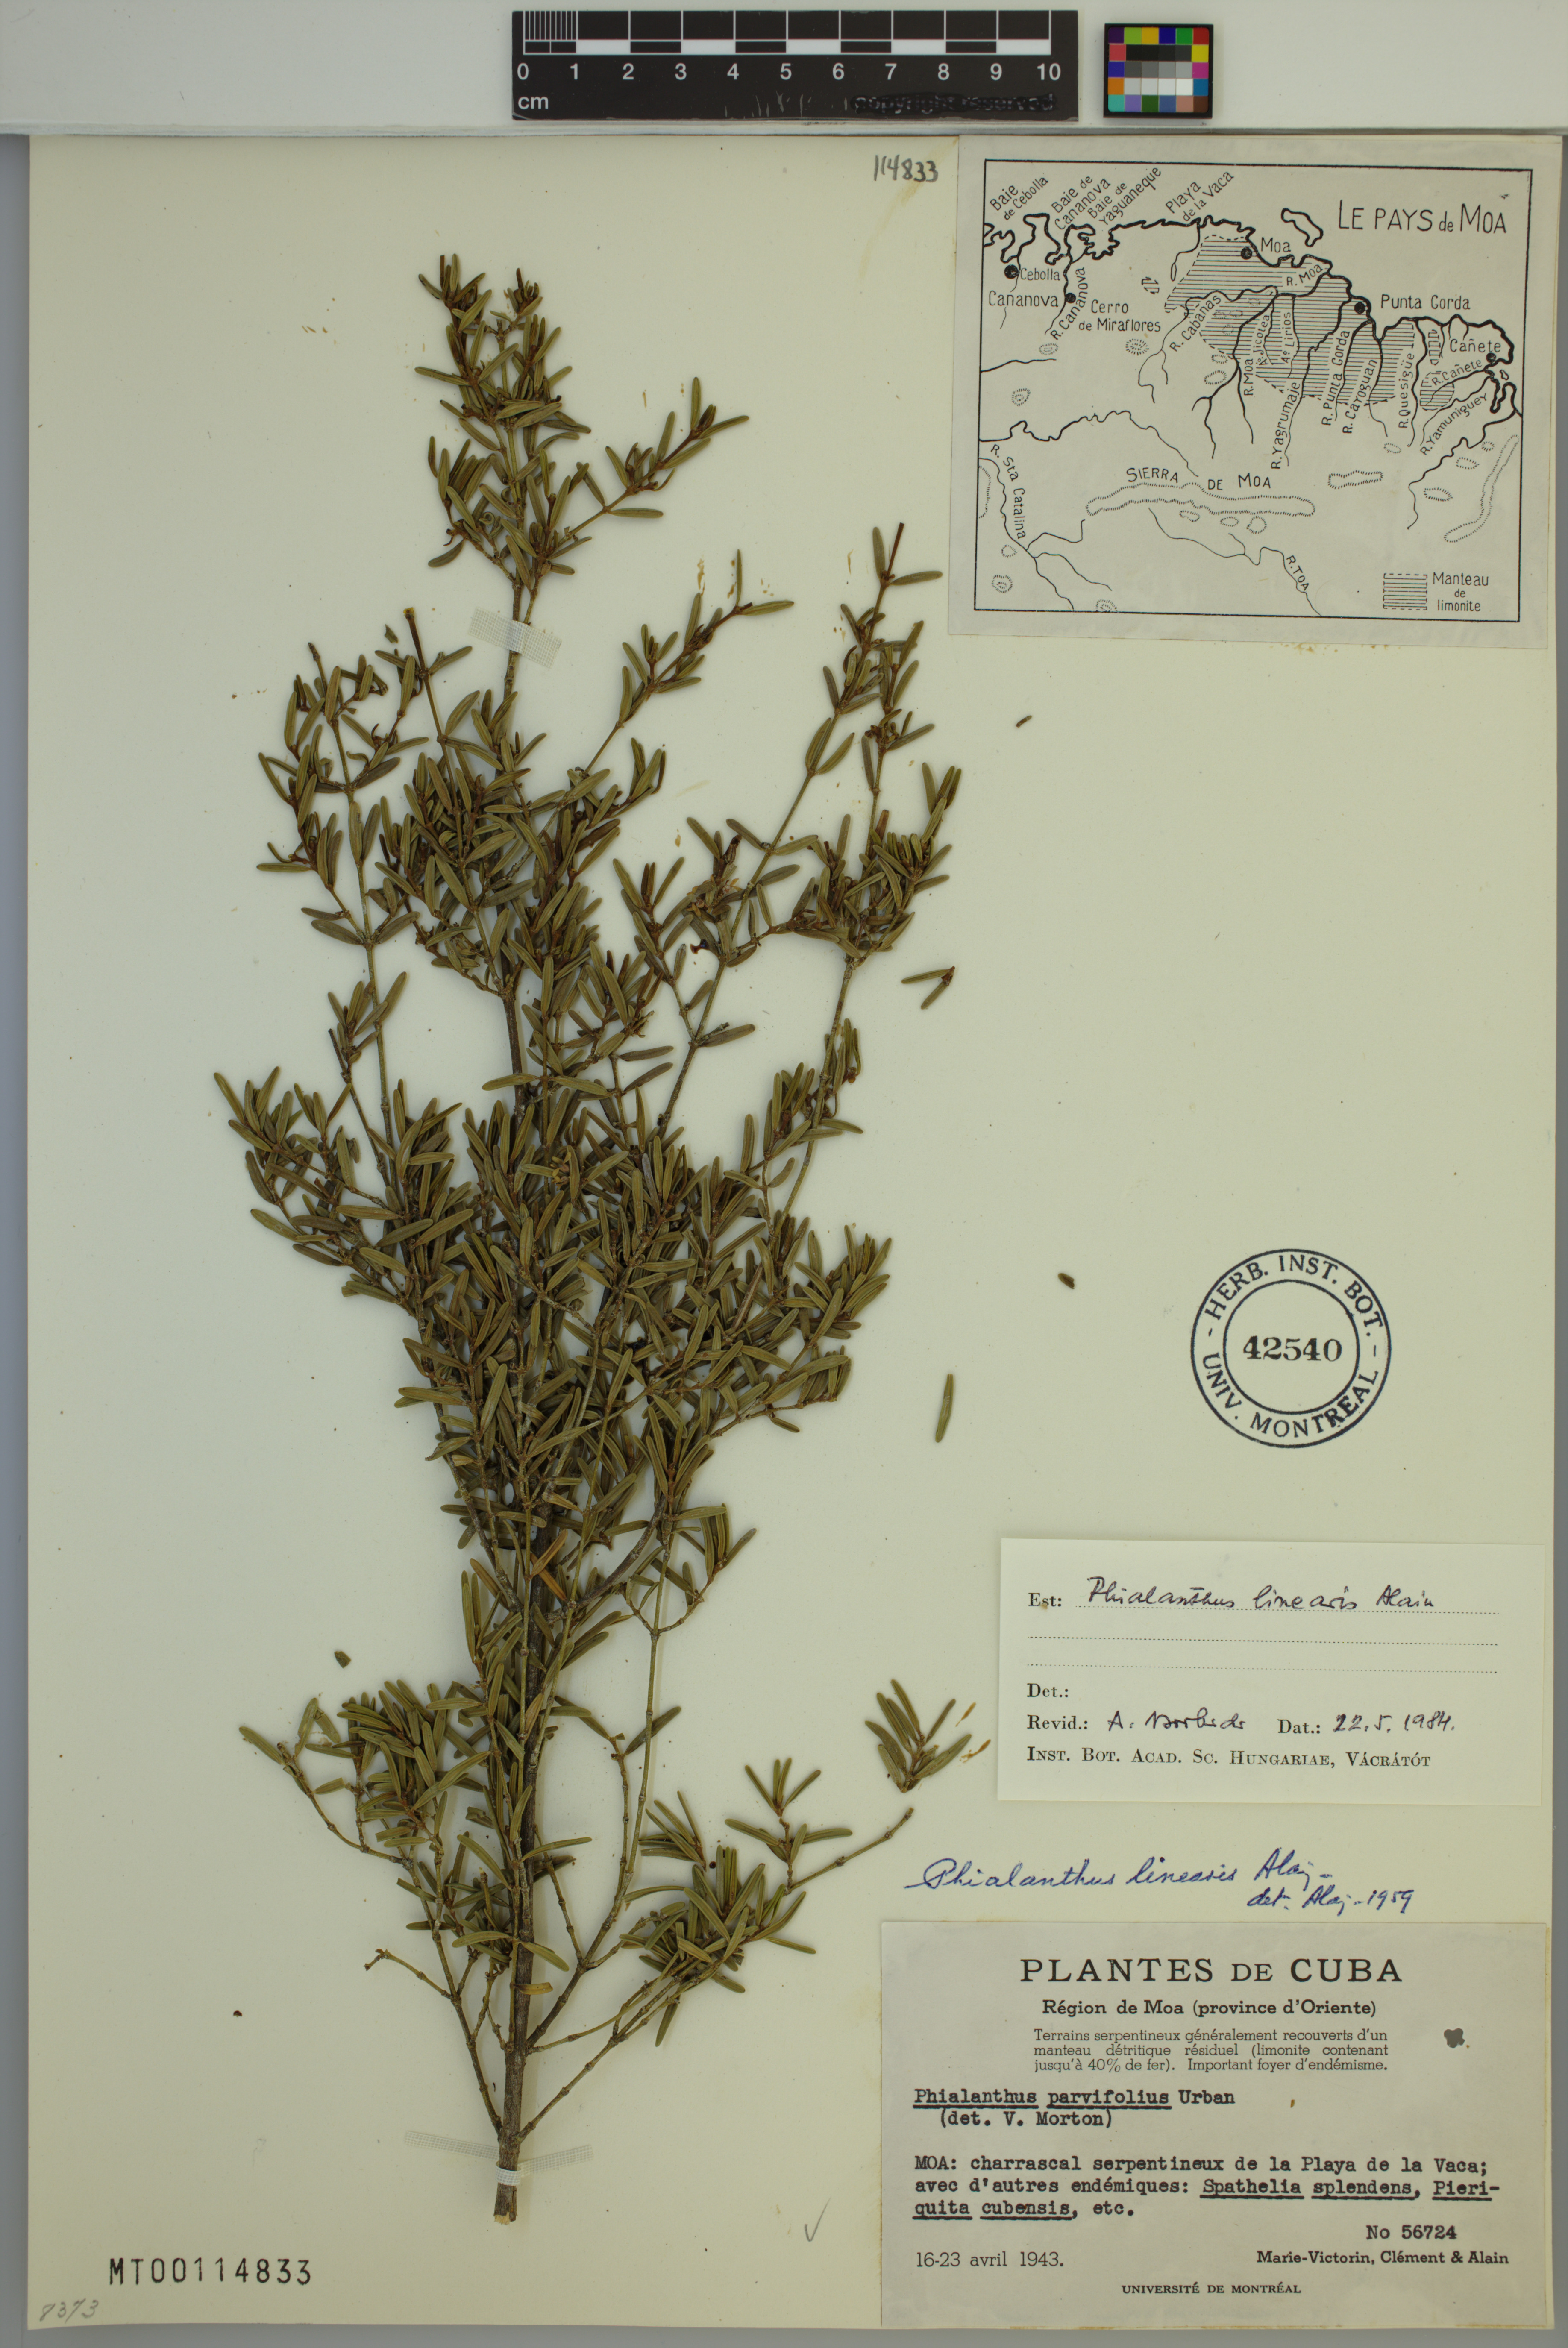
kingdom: Plantae
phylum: Tracheophyta
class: Magnoliopsida
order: Gentianales
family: Rubiaceae
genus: Phialanthus
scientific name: Phialanthus linearis
